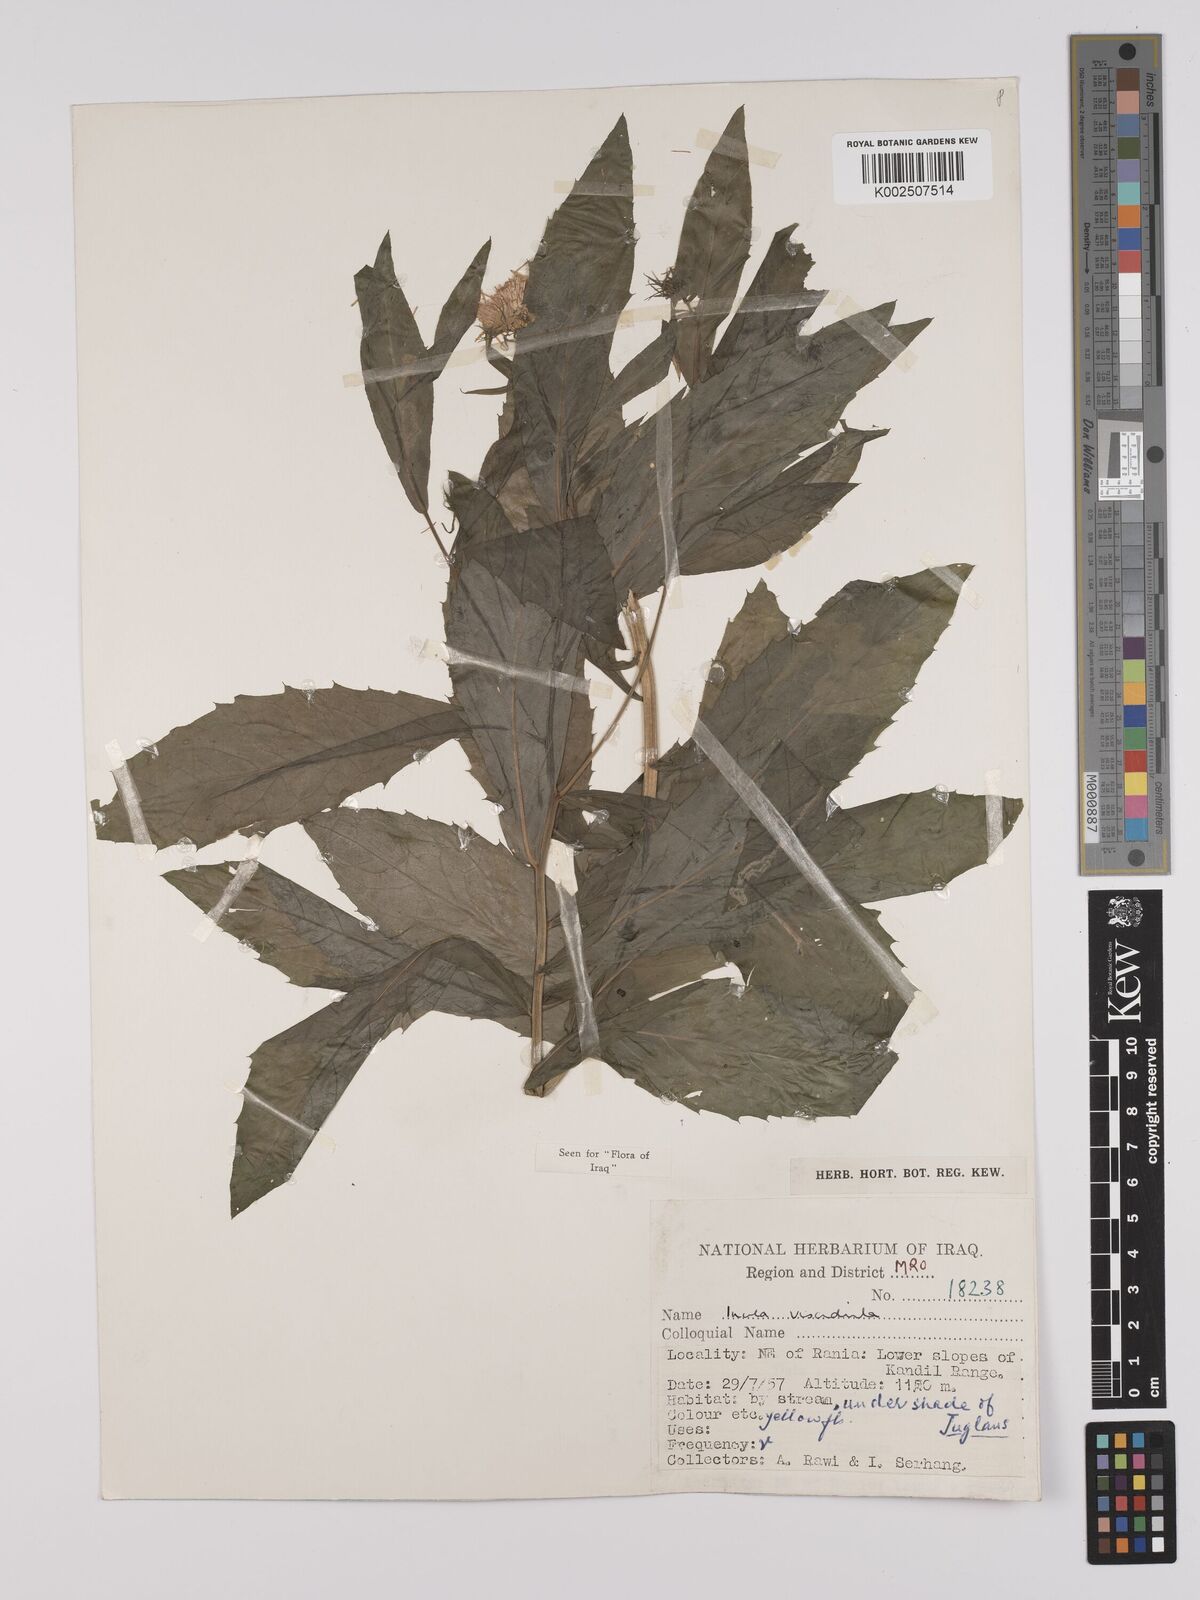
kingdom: Plantae
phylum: Tracheophyta
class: Magnoliopsida
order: Asterales
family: Asteraceae
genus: Inula
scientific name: Inula
